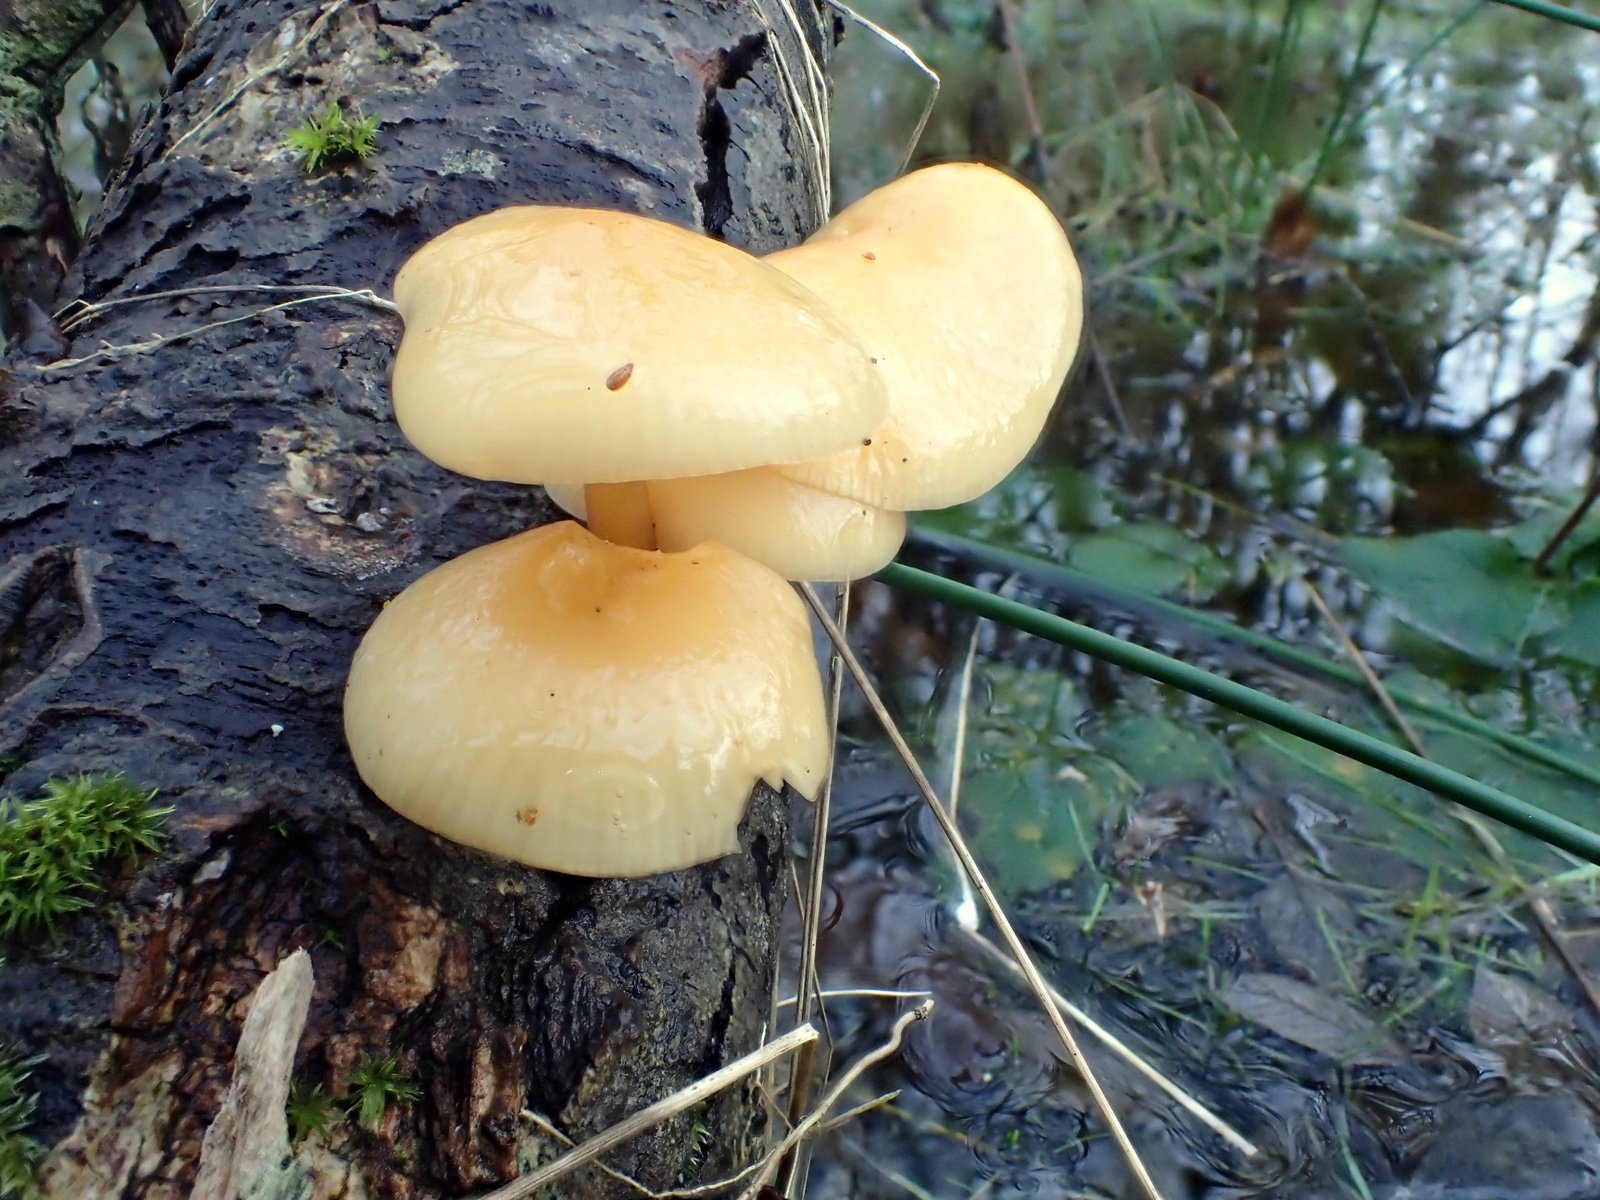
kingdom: Fungi
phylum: Basidiomycota
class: Agaricomycetes
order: Agaricales
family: Physalacriaceae
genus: Flammulina
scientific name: Flammulina
